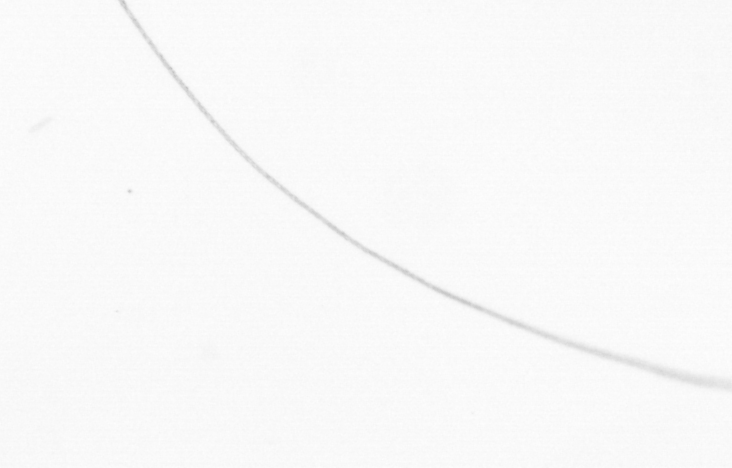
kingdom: Chromista
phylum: Ochrophyta
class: Bacillariophyceae
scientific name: Bacillariophyceae
